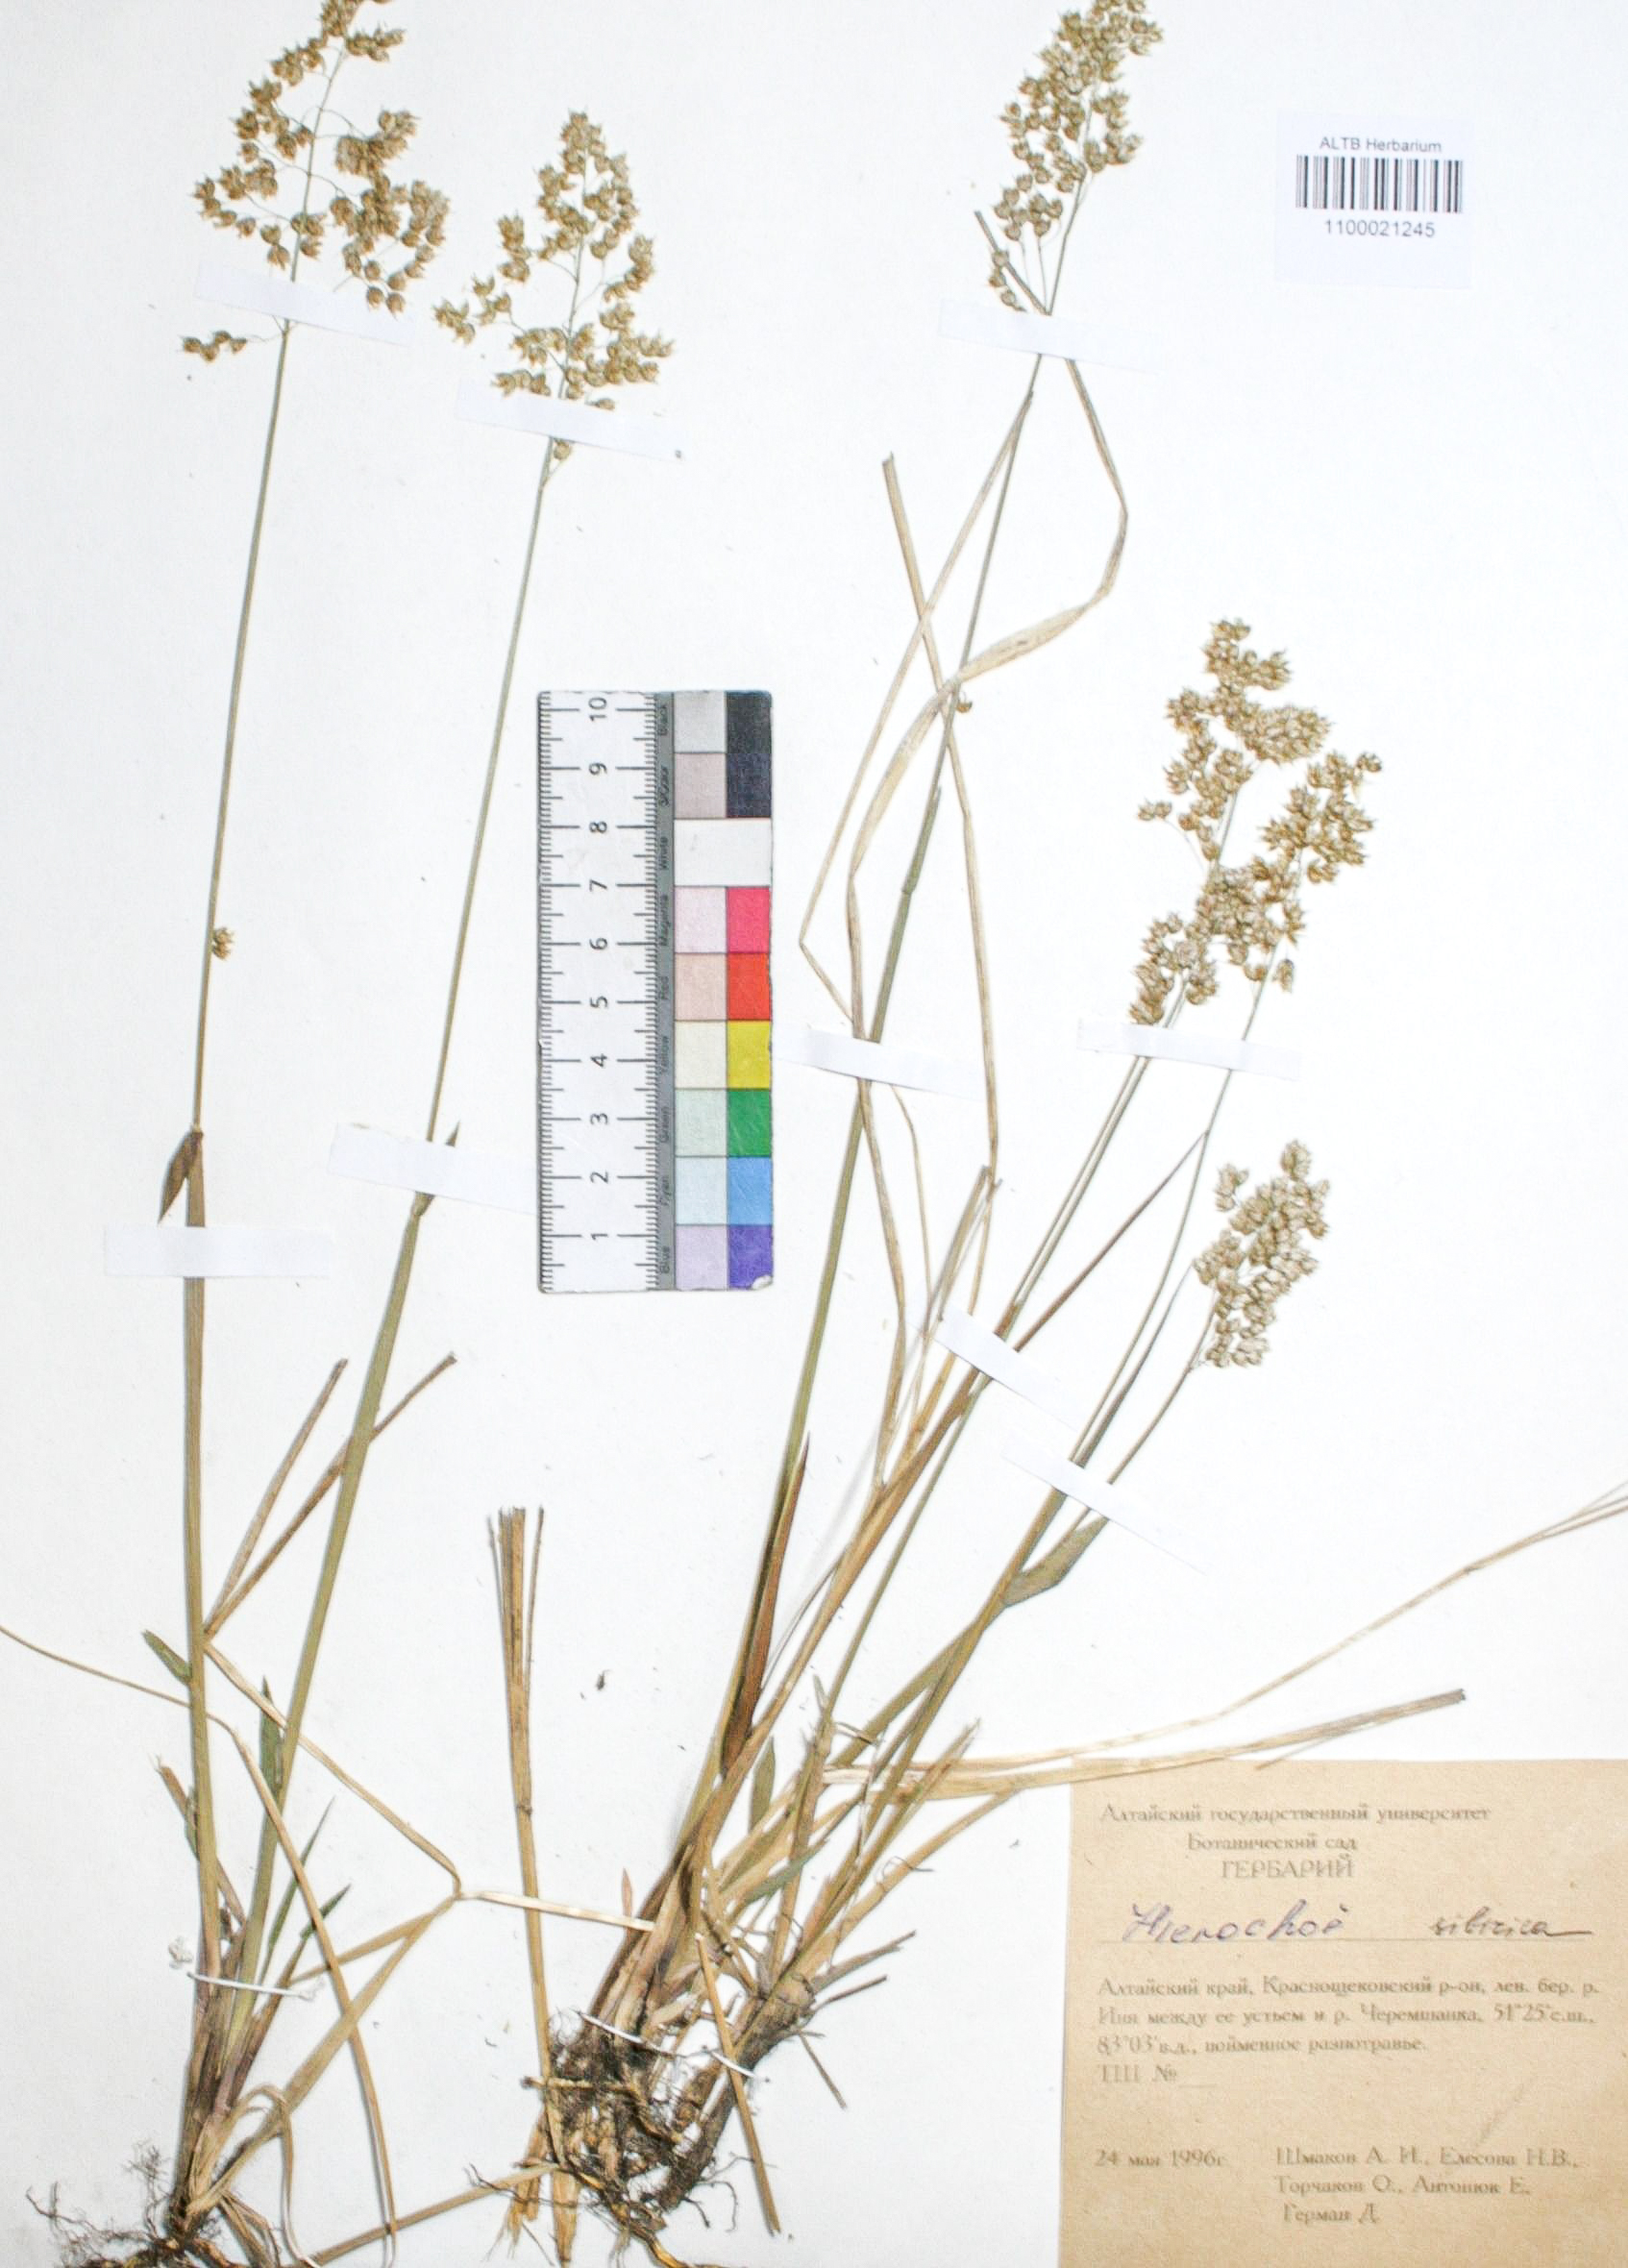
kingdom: Plantae
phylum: Tracheophyta
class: Liliopsida
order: Poales
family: Poaceae
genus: Anthoxanthum
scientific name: Anthoxanthum glabrum
